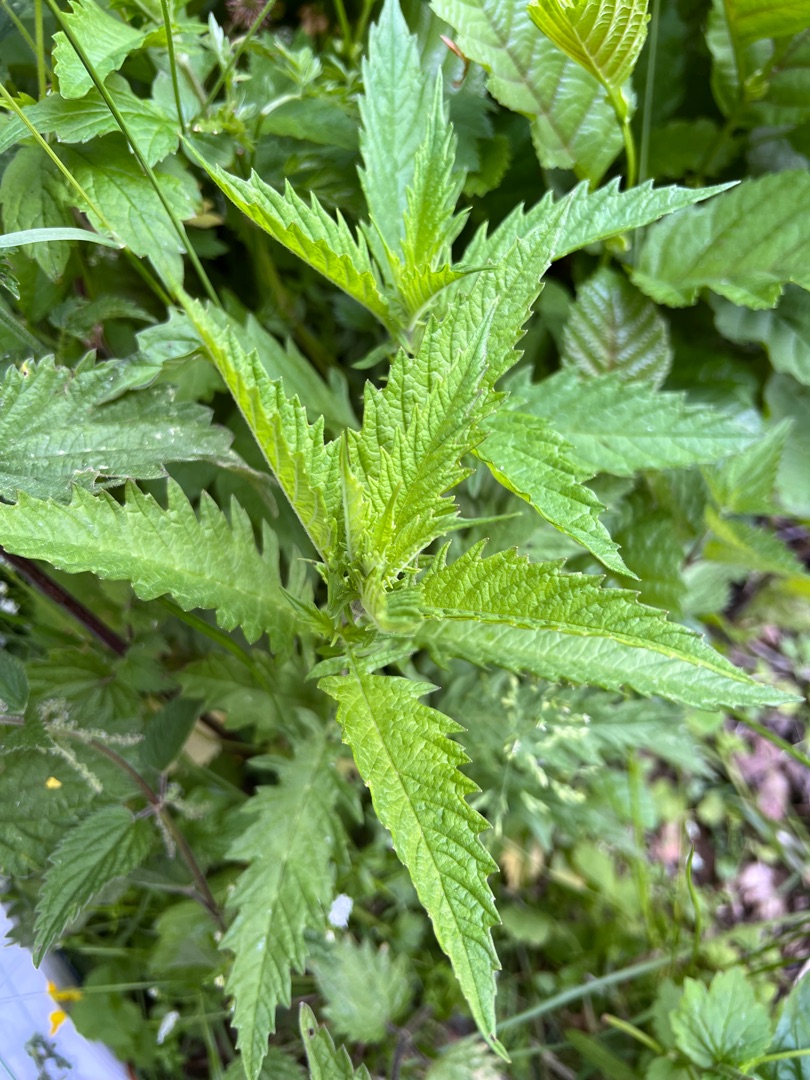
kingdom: Plantae
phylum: Tracheophyta
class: Magnoliopsida
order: Lamiales
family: Lamiaceae
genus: Lycopus
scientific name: Lycopus europaeus
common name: Sværtevæld
